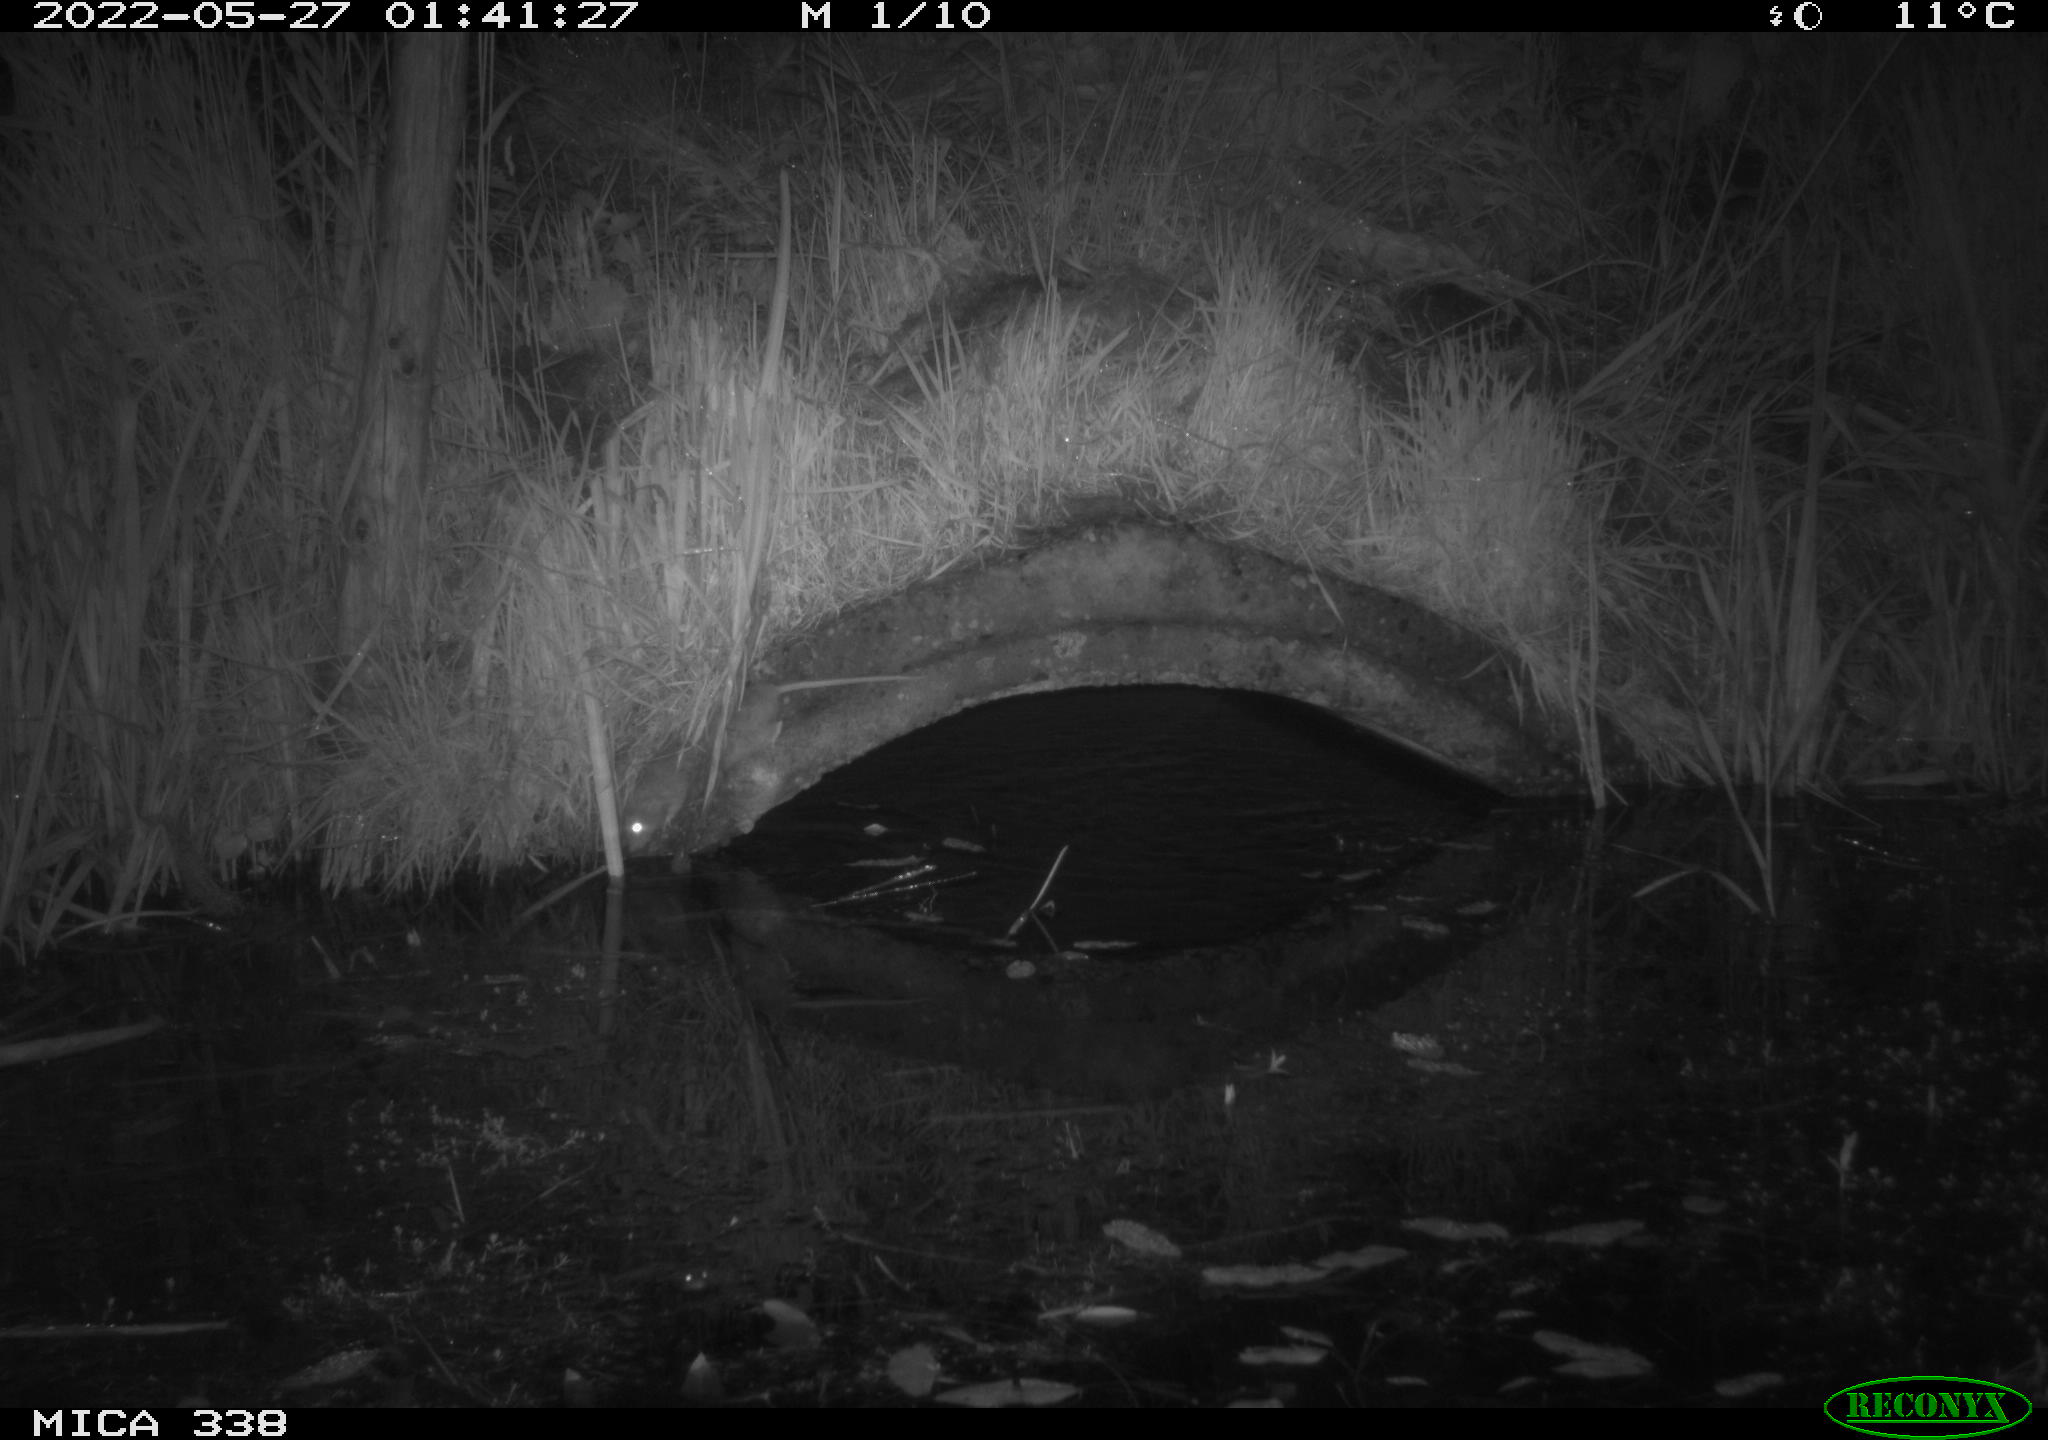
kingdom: Animalia
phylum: Chordata
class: Mammalia
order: Rodentia
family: Muridae
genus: Rattus
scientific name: Rattus norvegicus
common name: Brown rat
